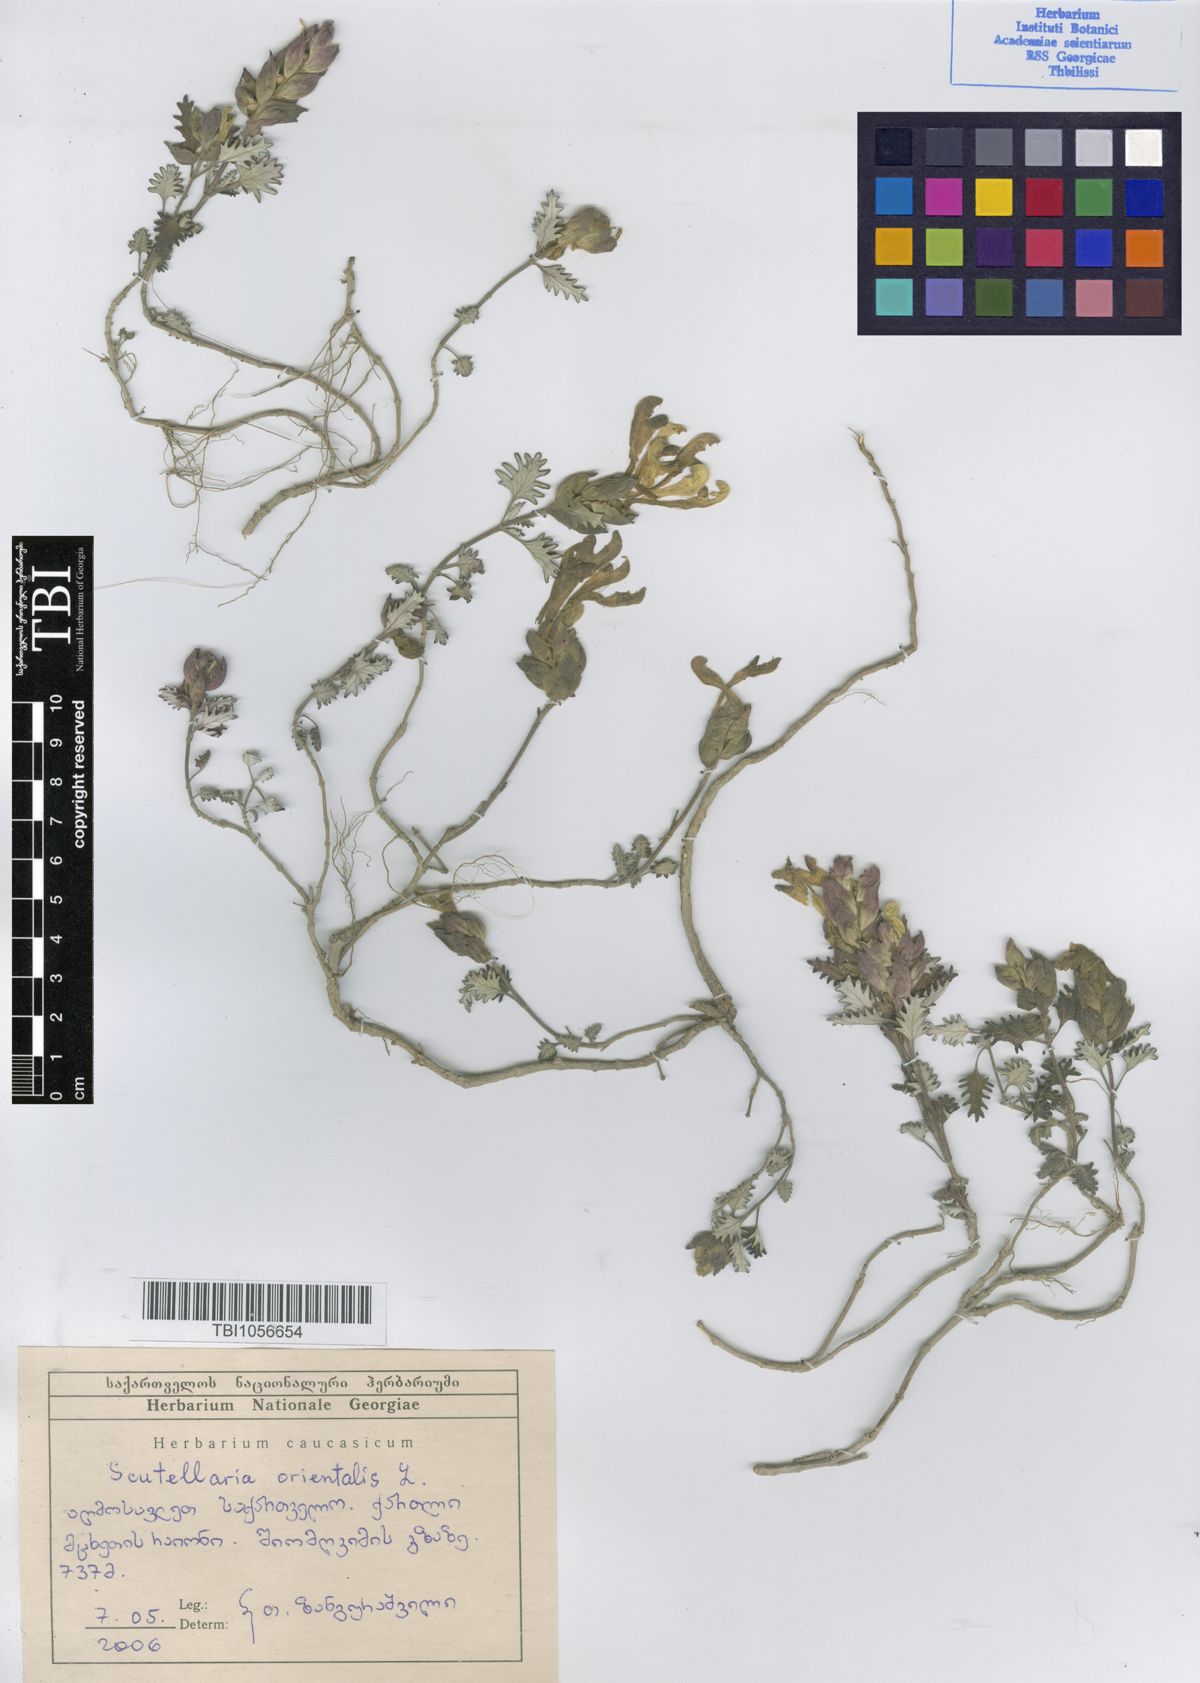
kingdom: Plantae
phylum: Tracheophyta
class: Magnoliopsida
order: Lamiales
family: Lamiaceae
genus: Scutellaria
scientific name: Scutellaria orientalis
